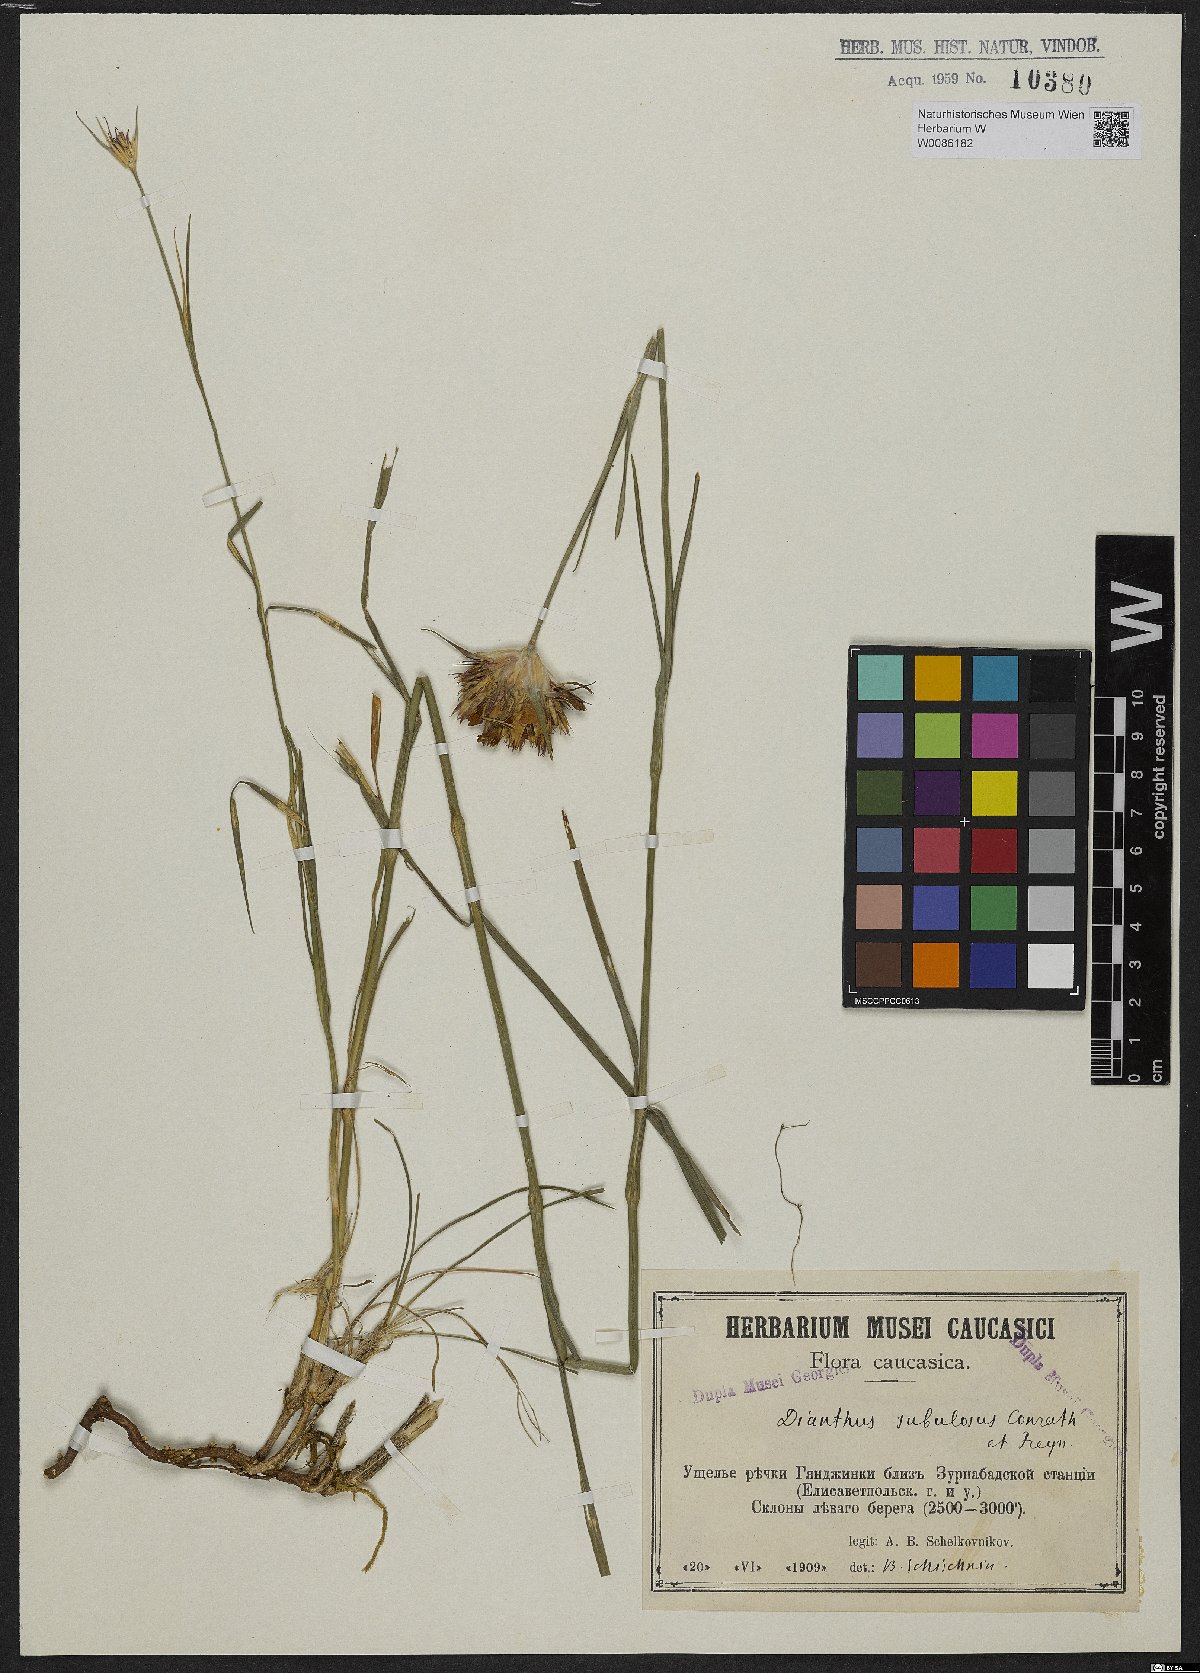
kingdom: Plantae
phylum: Tracheophyta
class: Magnoliopsida
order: Caryophyllales
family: Caryophyllaceae
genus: Dianthus
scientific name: Dianthus subulosus
